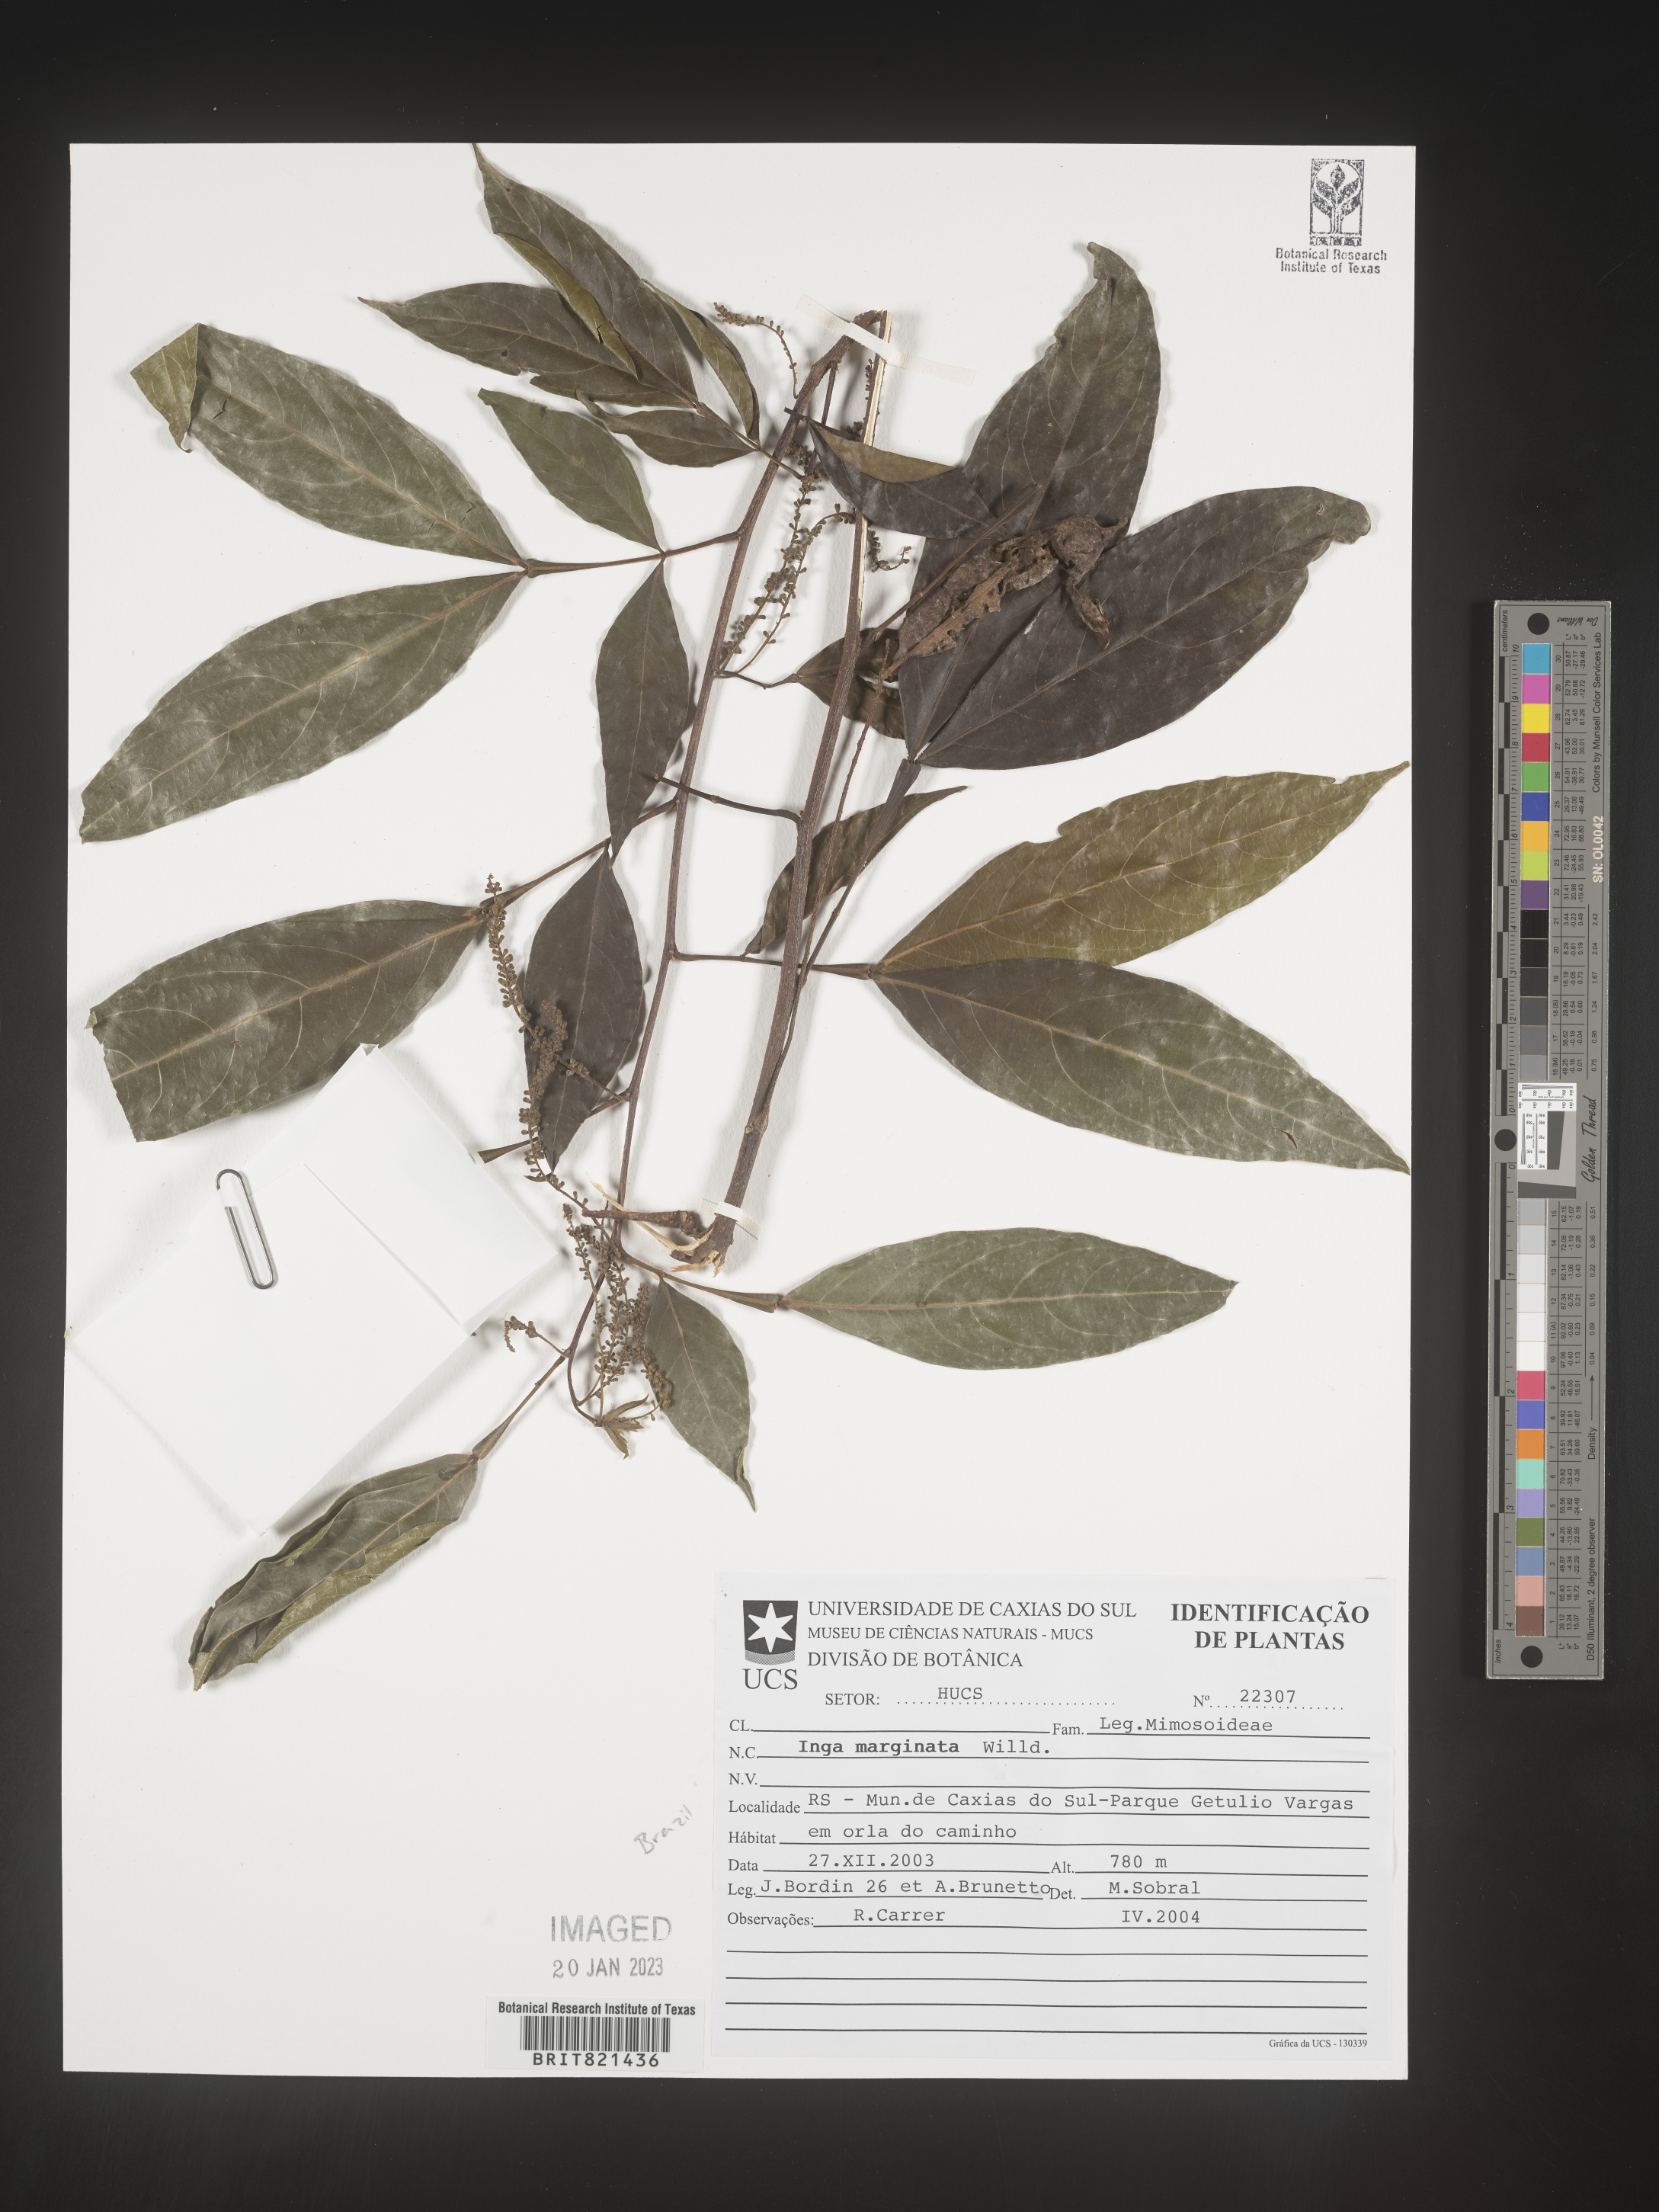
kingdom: Plantae
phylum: Tracheophyta
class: Magnoliopsida
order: Fabales
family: Fabaceae
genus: Inga
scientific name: Inga
